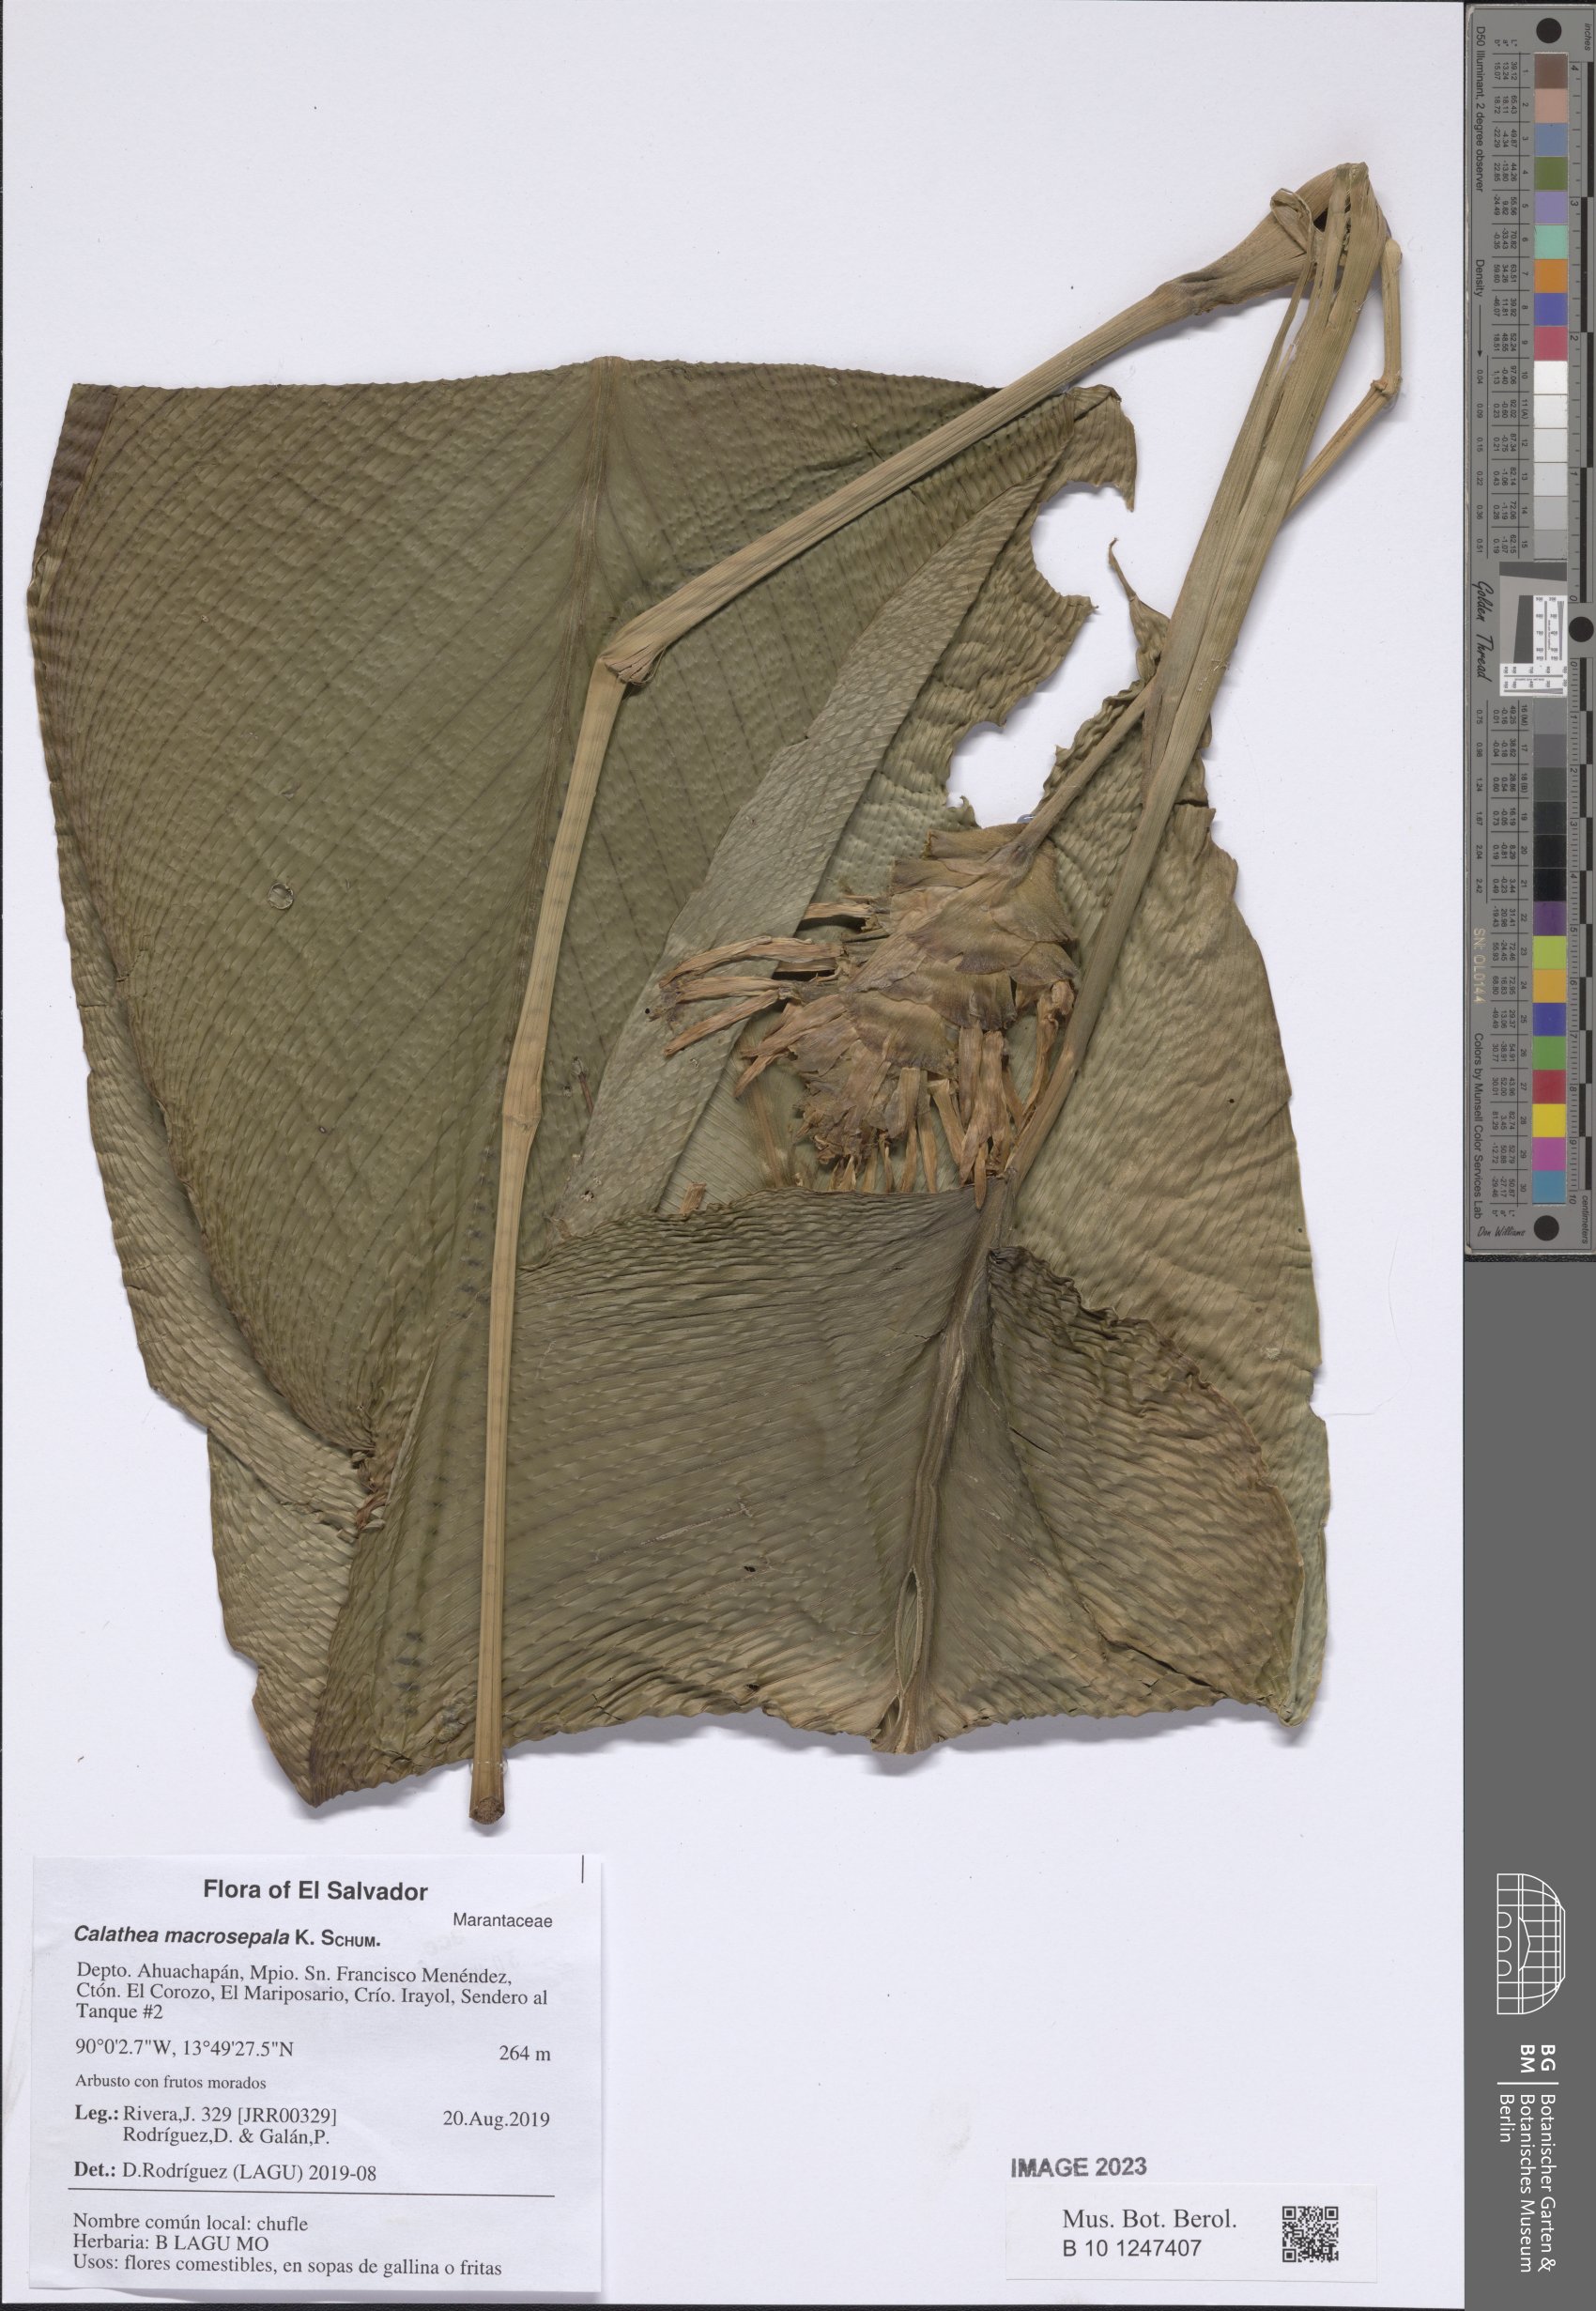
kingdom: Plantae
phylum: Tracheophyta
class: Liliopsida
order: Zingiberales
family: Marantaceae
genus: Goeppertia
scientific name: Goeppertia macrosepala
